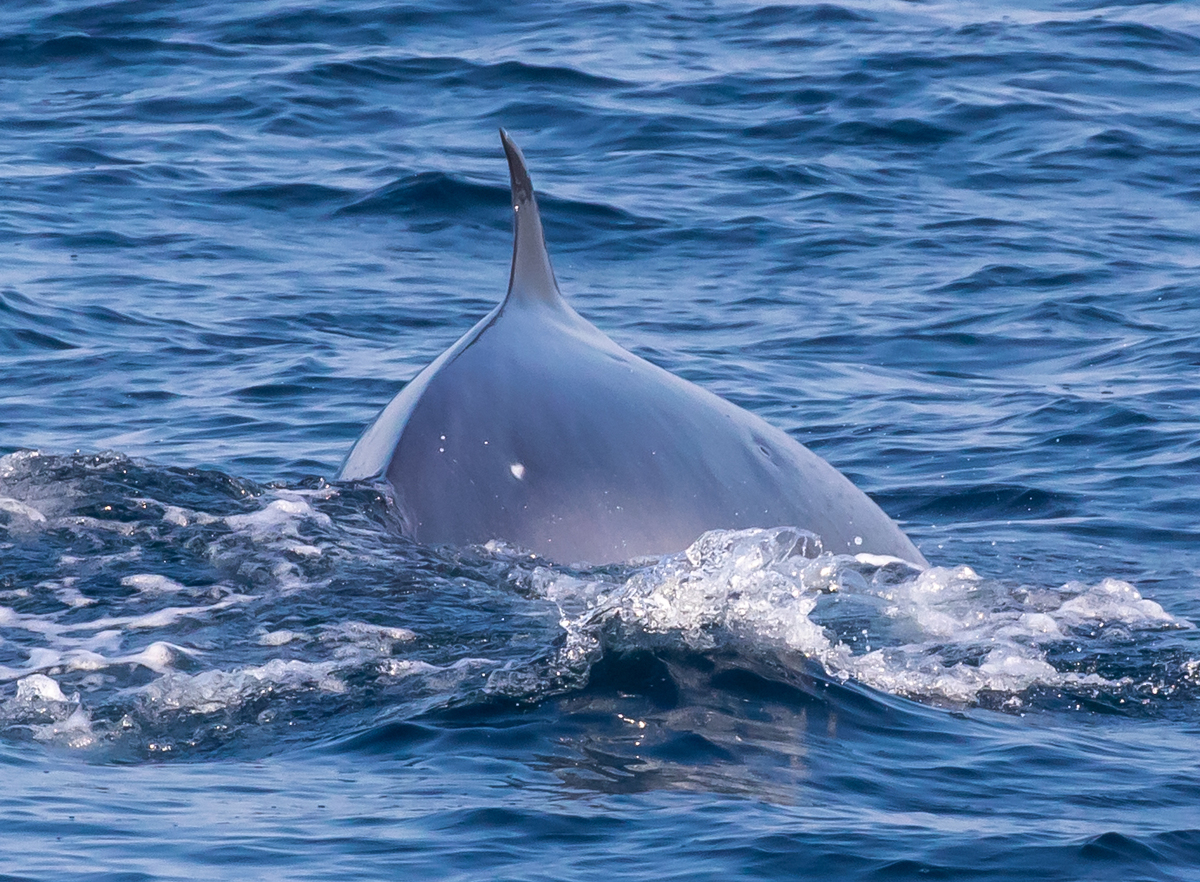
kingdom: Animalia
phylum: Chordata
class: Mammalia
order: Cetacea
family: Balaenopteridae
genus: Balaenoptera
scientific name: Balaenoptera edeni
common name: Bryde's whale
